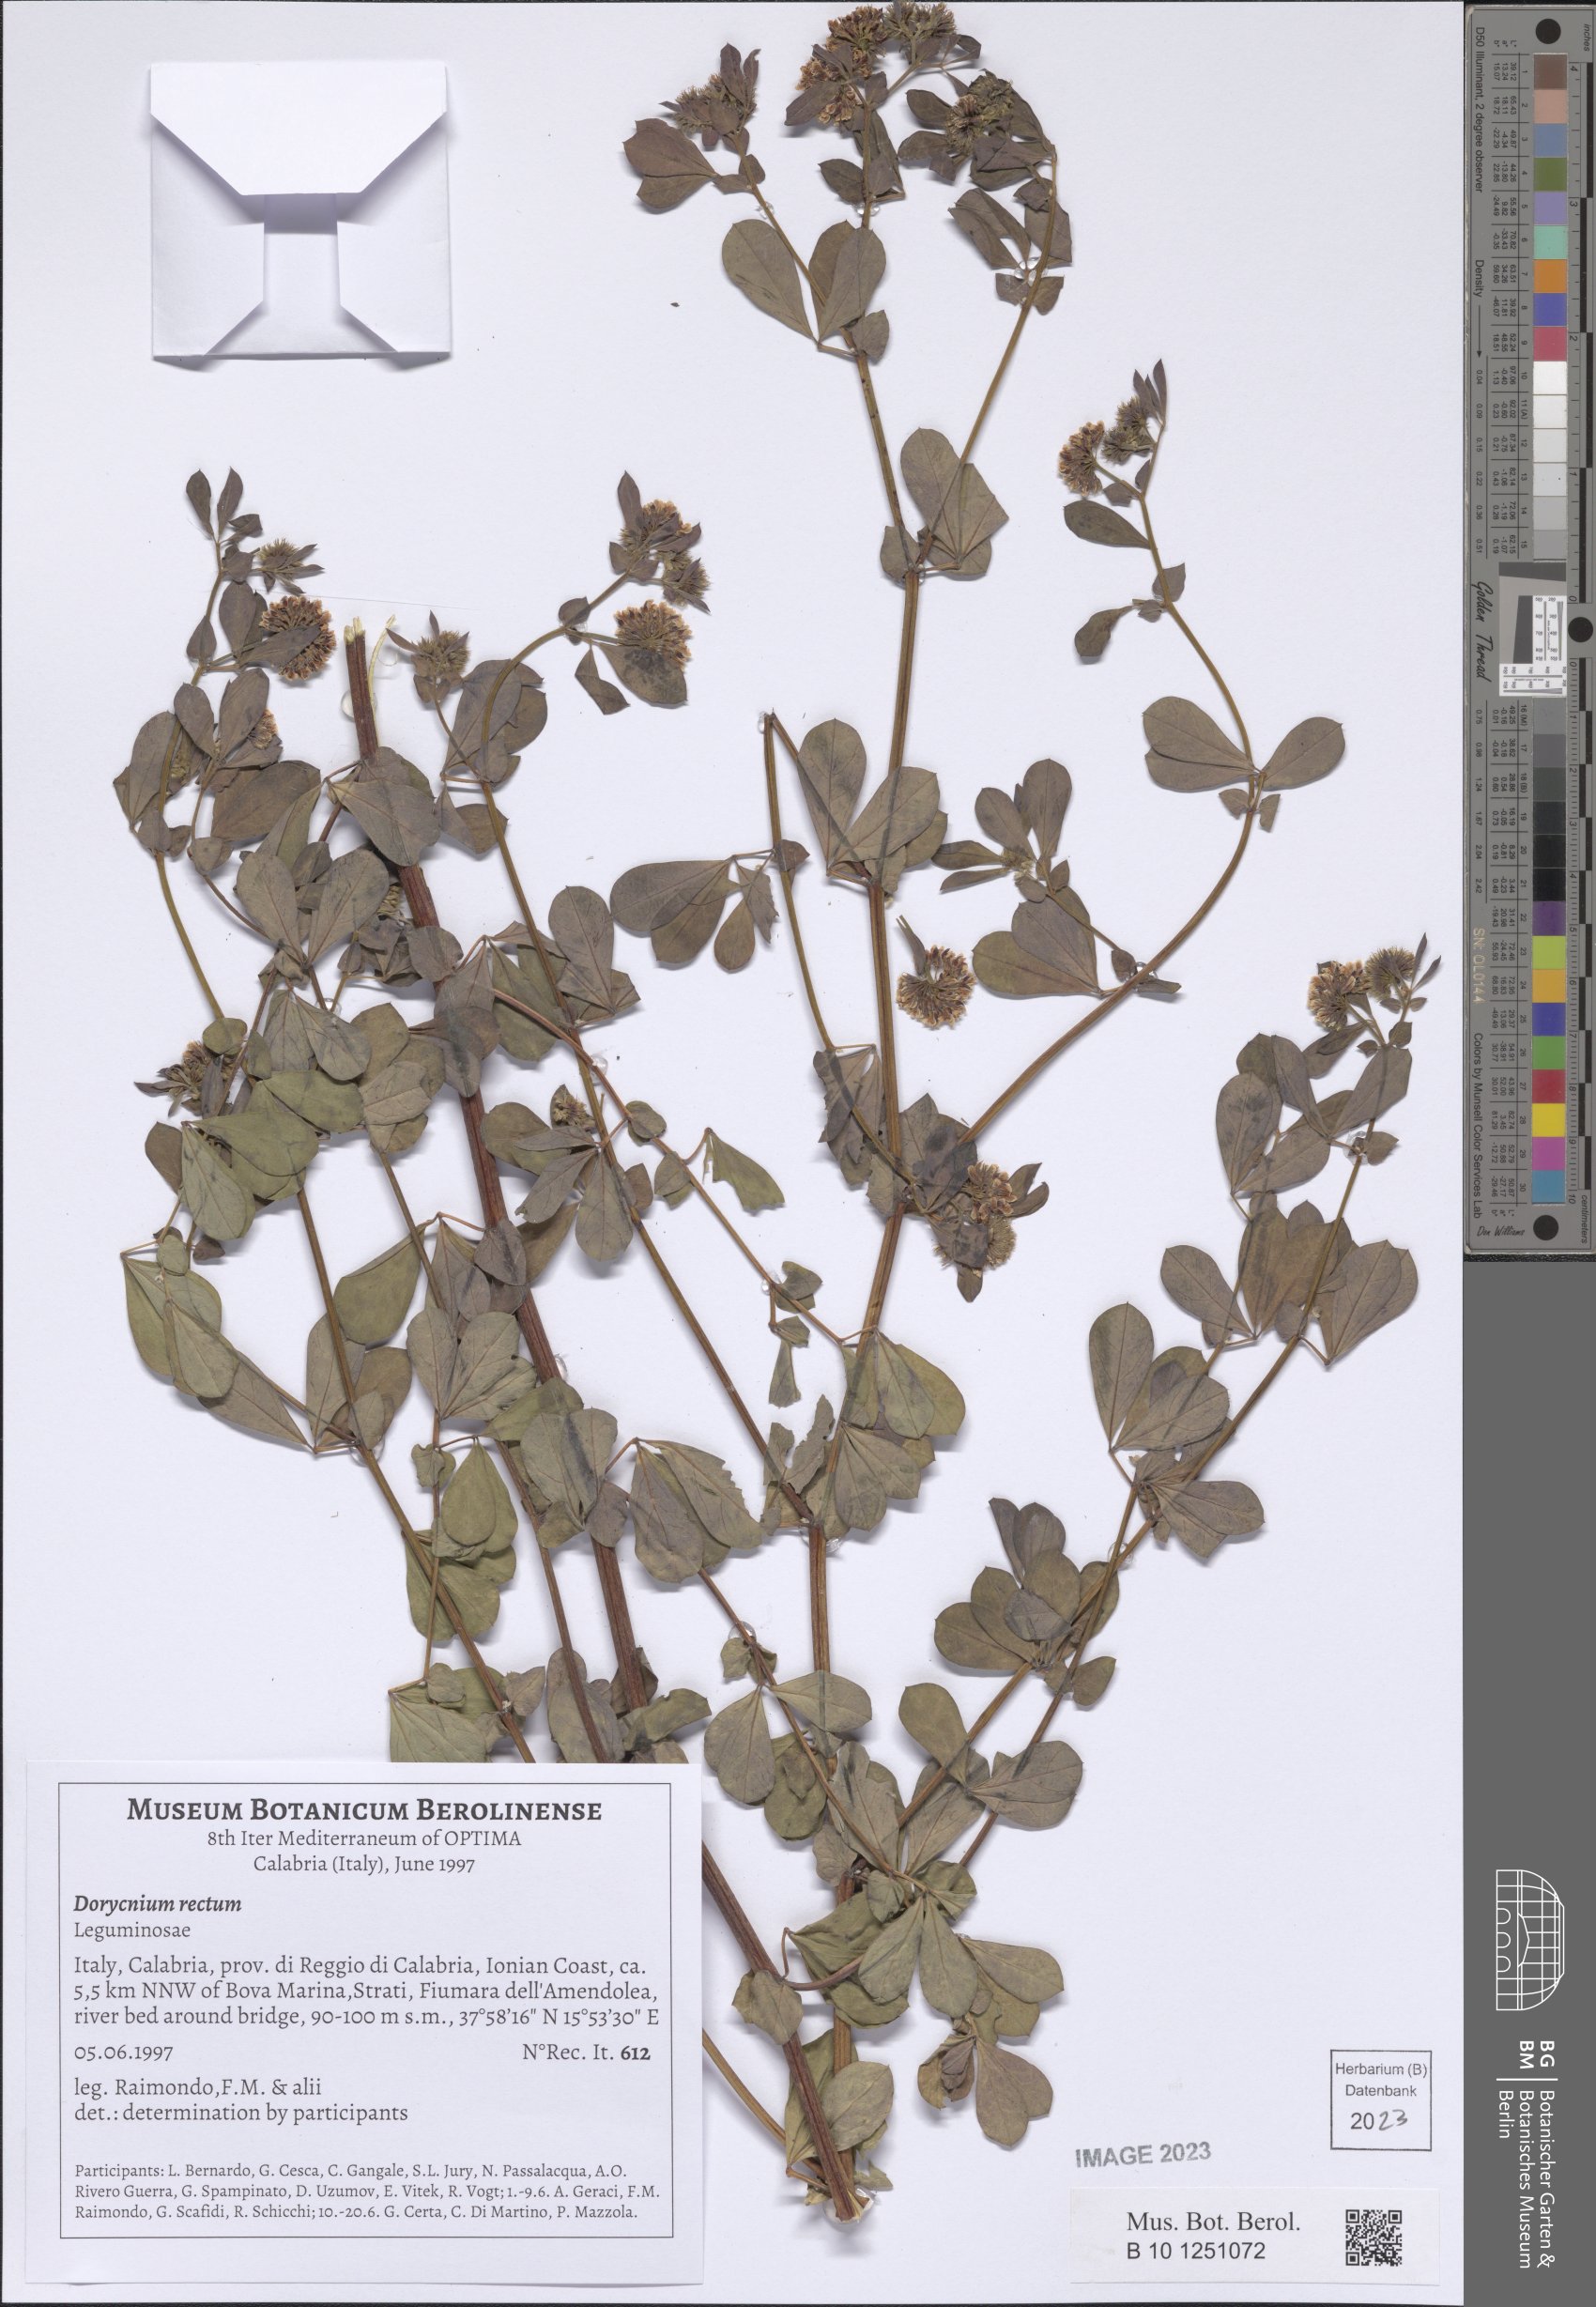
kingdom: Plantae
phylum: Tracheophyta
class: Magnoliopsida
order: Fabales
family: Fabaceae
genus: Lotus
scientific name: Lotus rectus
